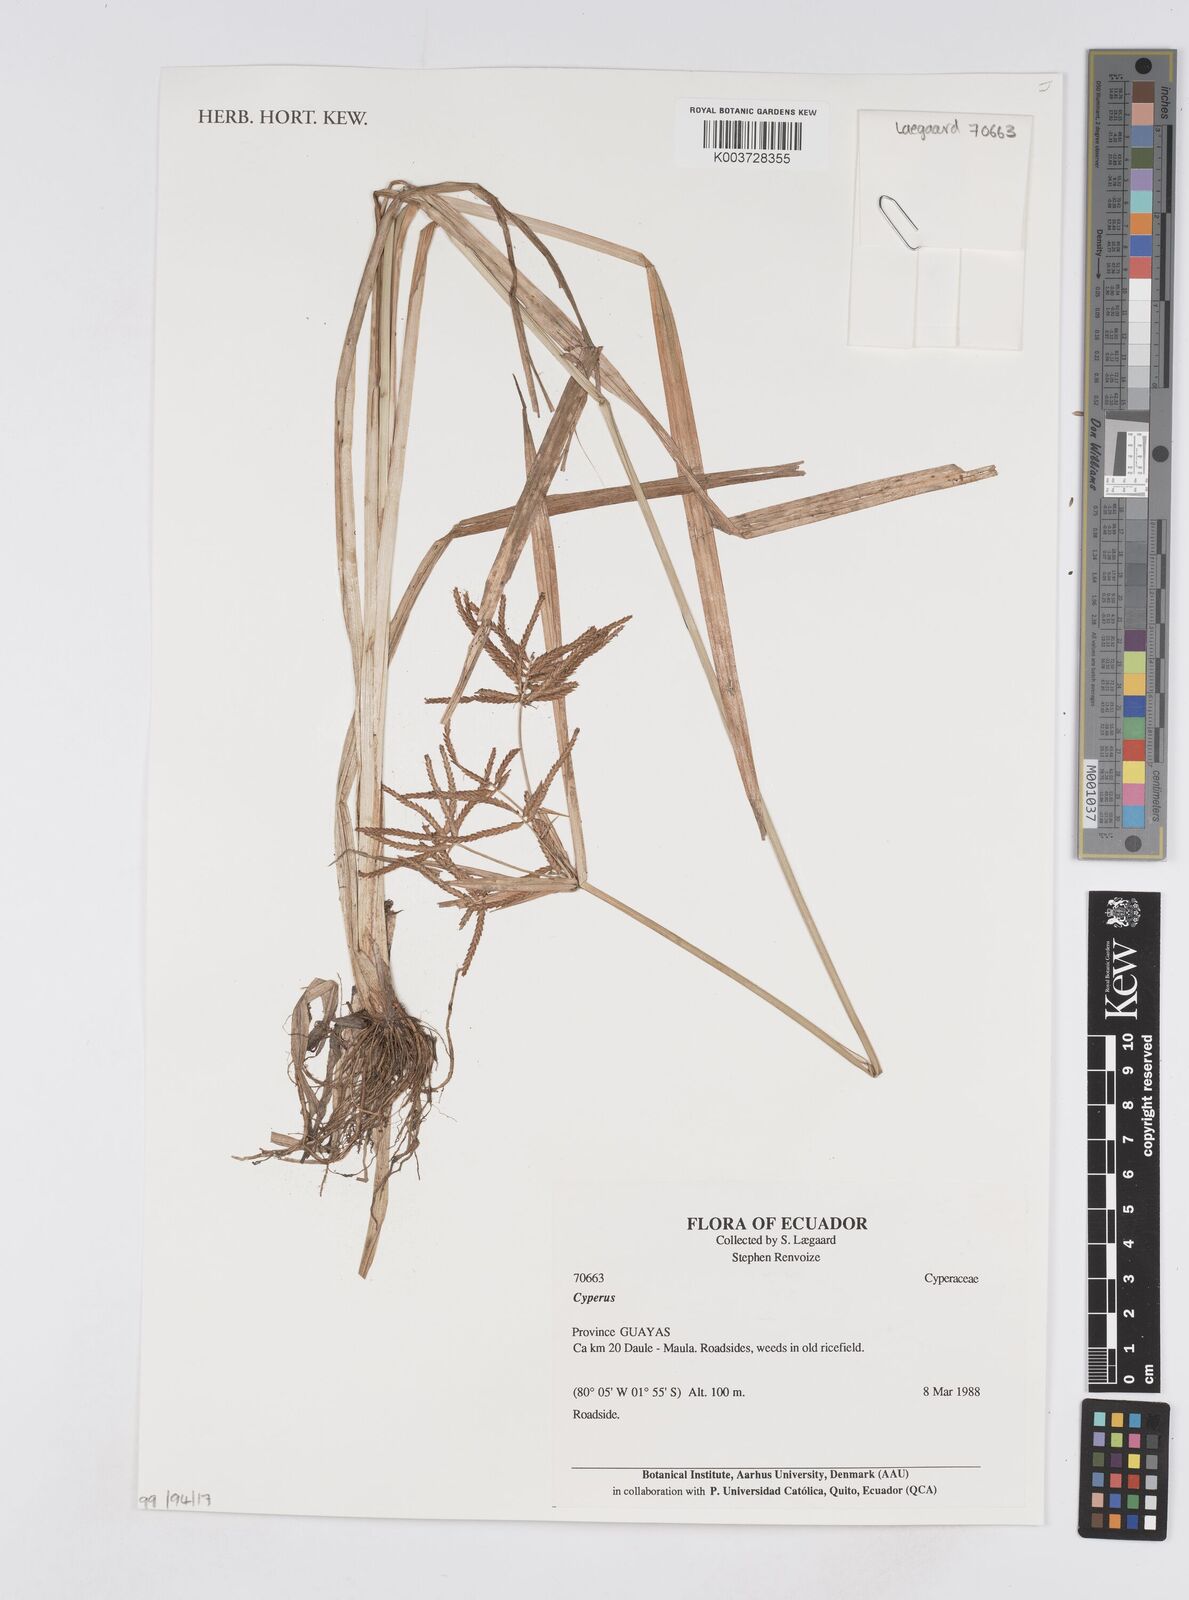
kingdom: Plantae
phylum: Tracheophyta
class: Liliopsida
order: Poales
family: Cyperaceae
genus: Cyperus
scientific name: Cyperus
